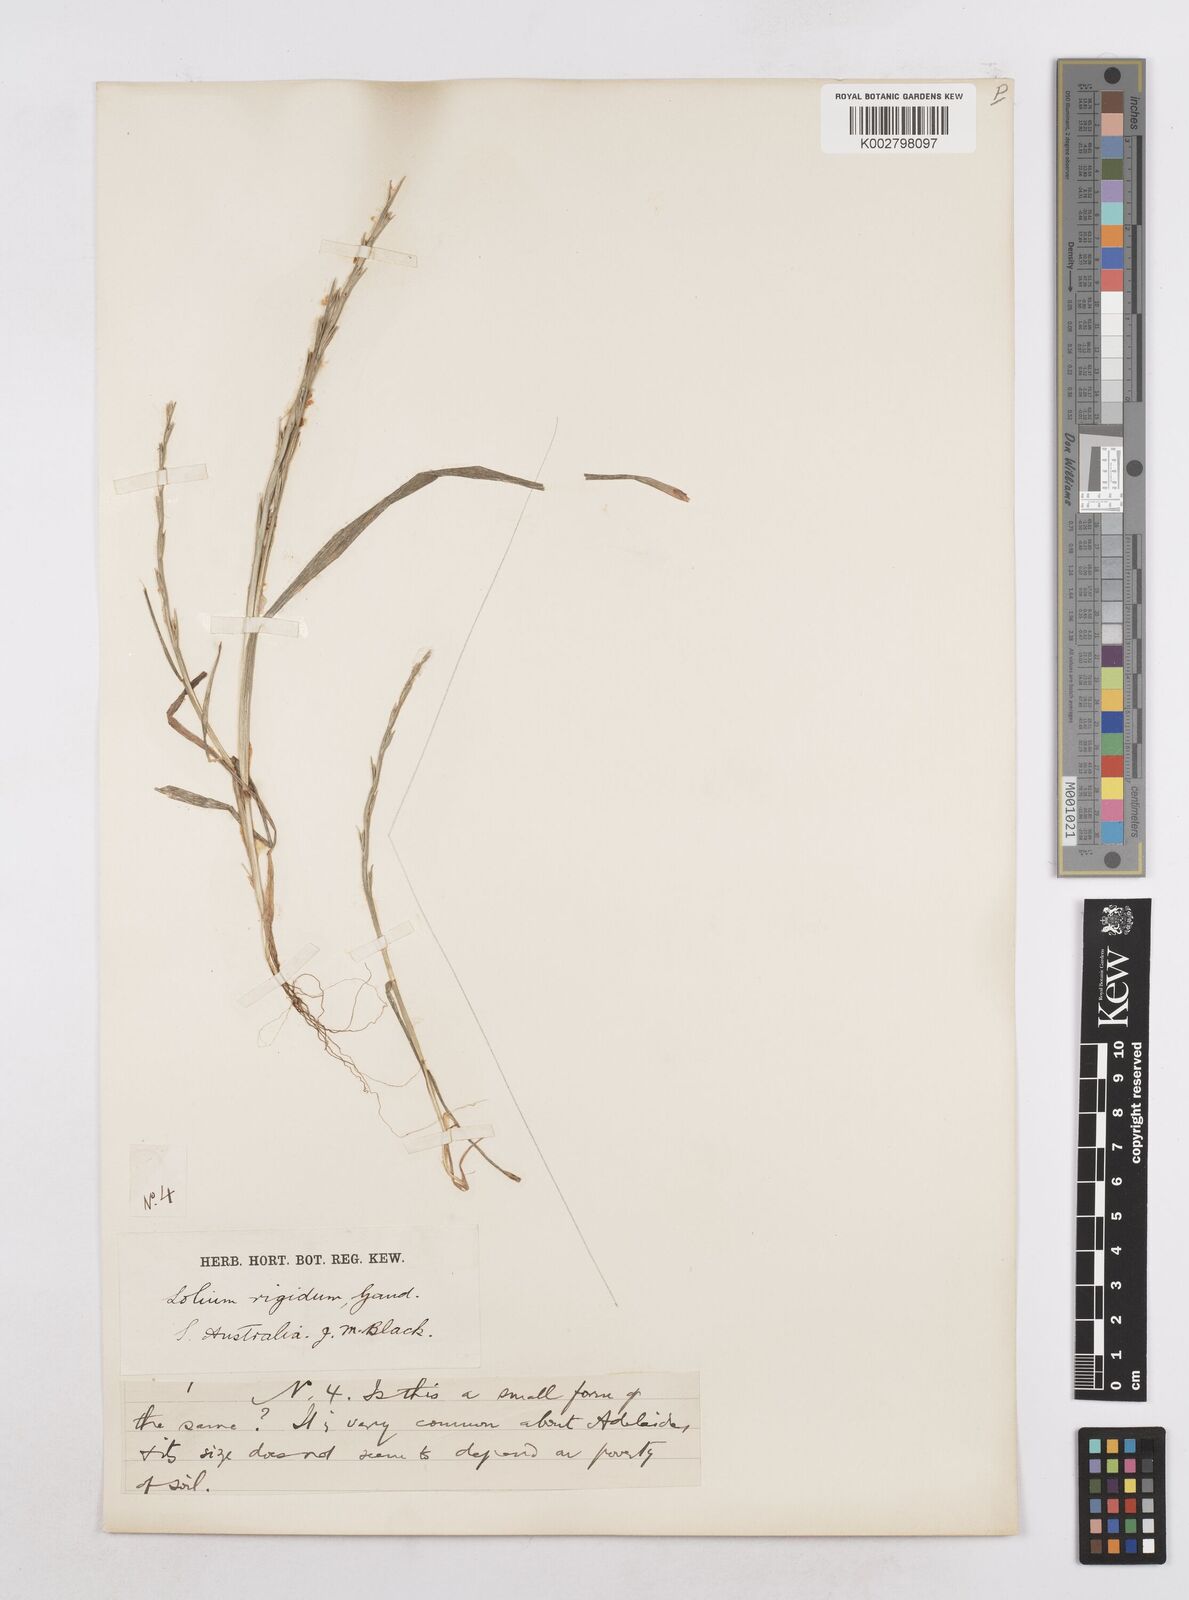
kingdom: Plantae
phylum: Tracheophyta
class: Liliopsida
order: Poales
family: Poaceae
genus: Lolium
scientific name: Lolium
